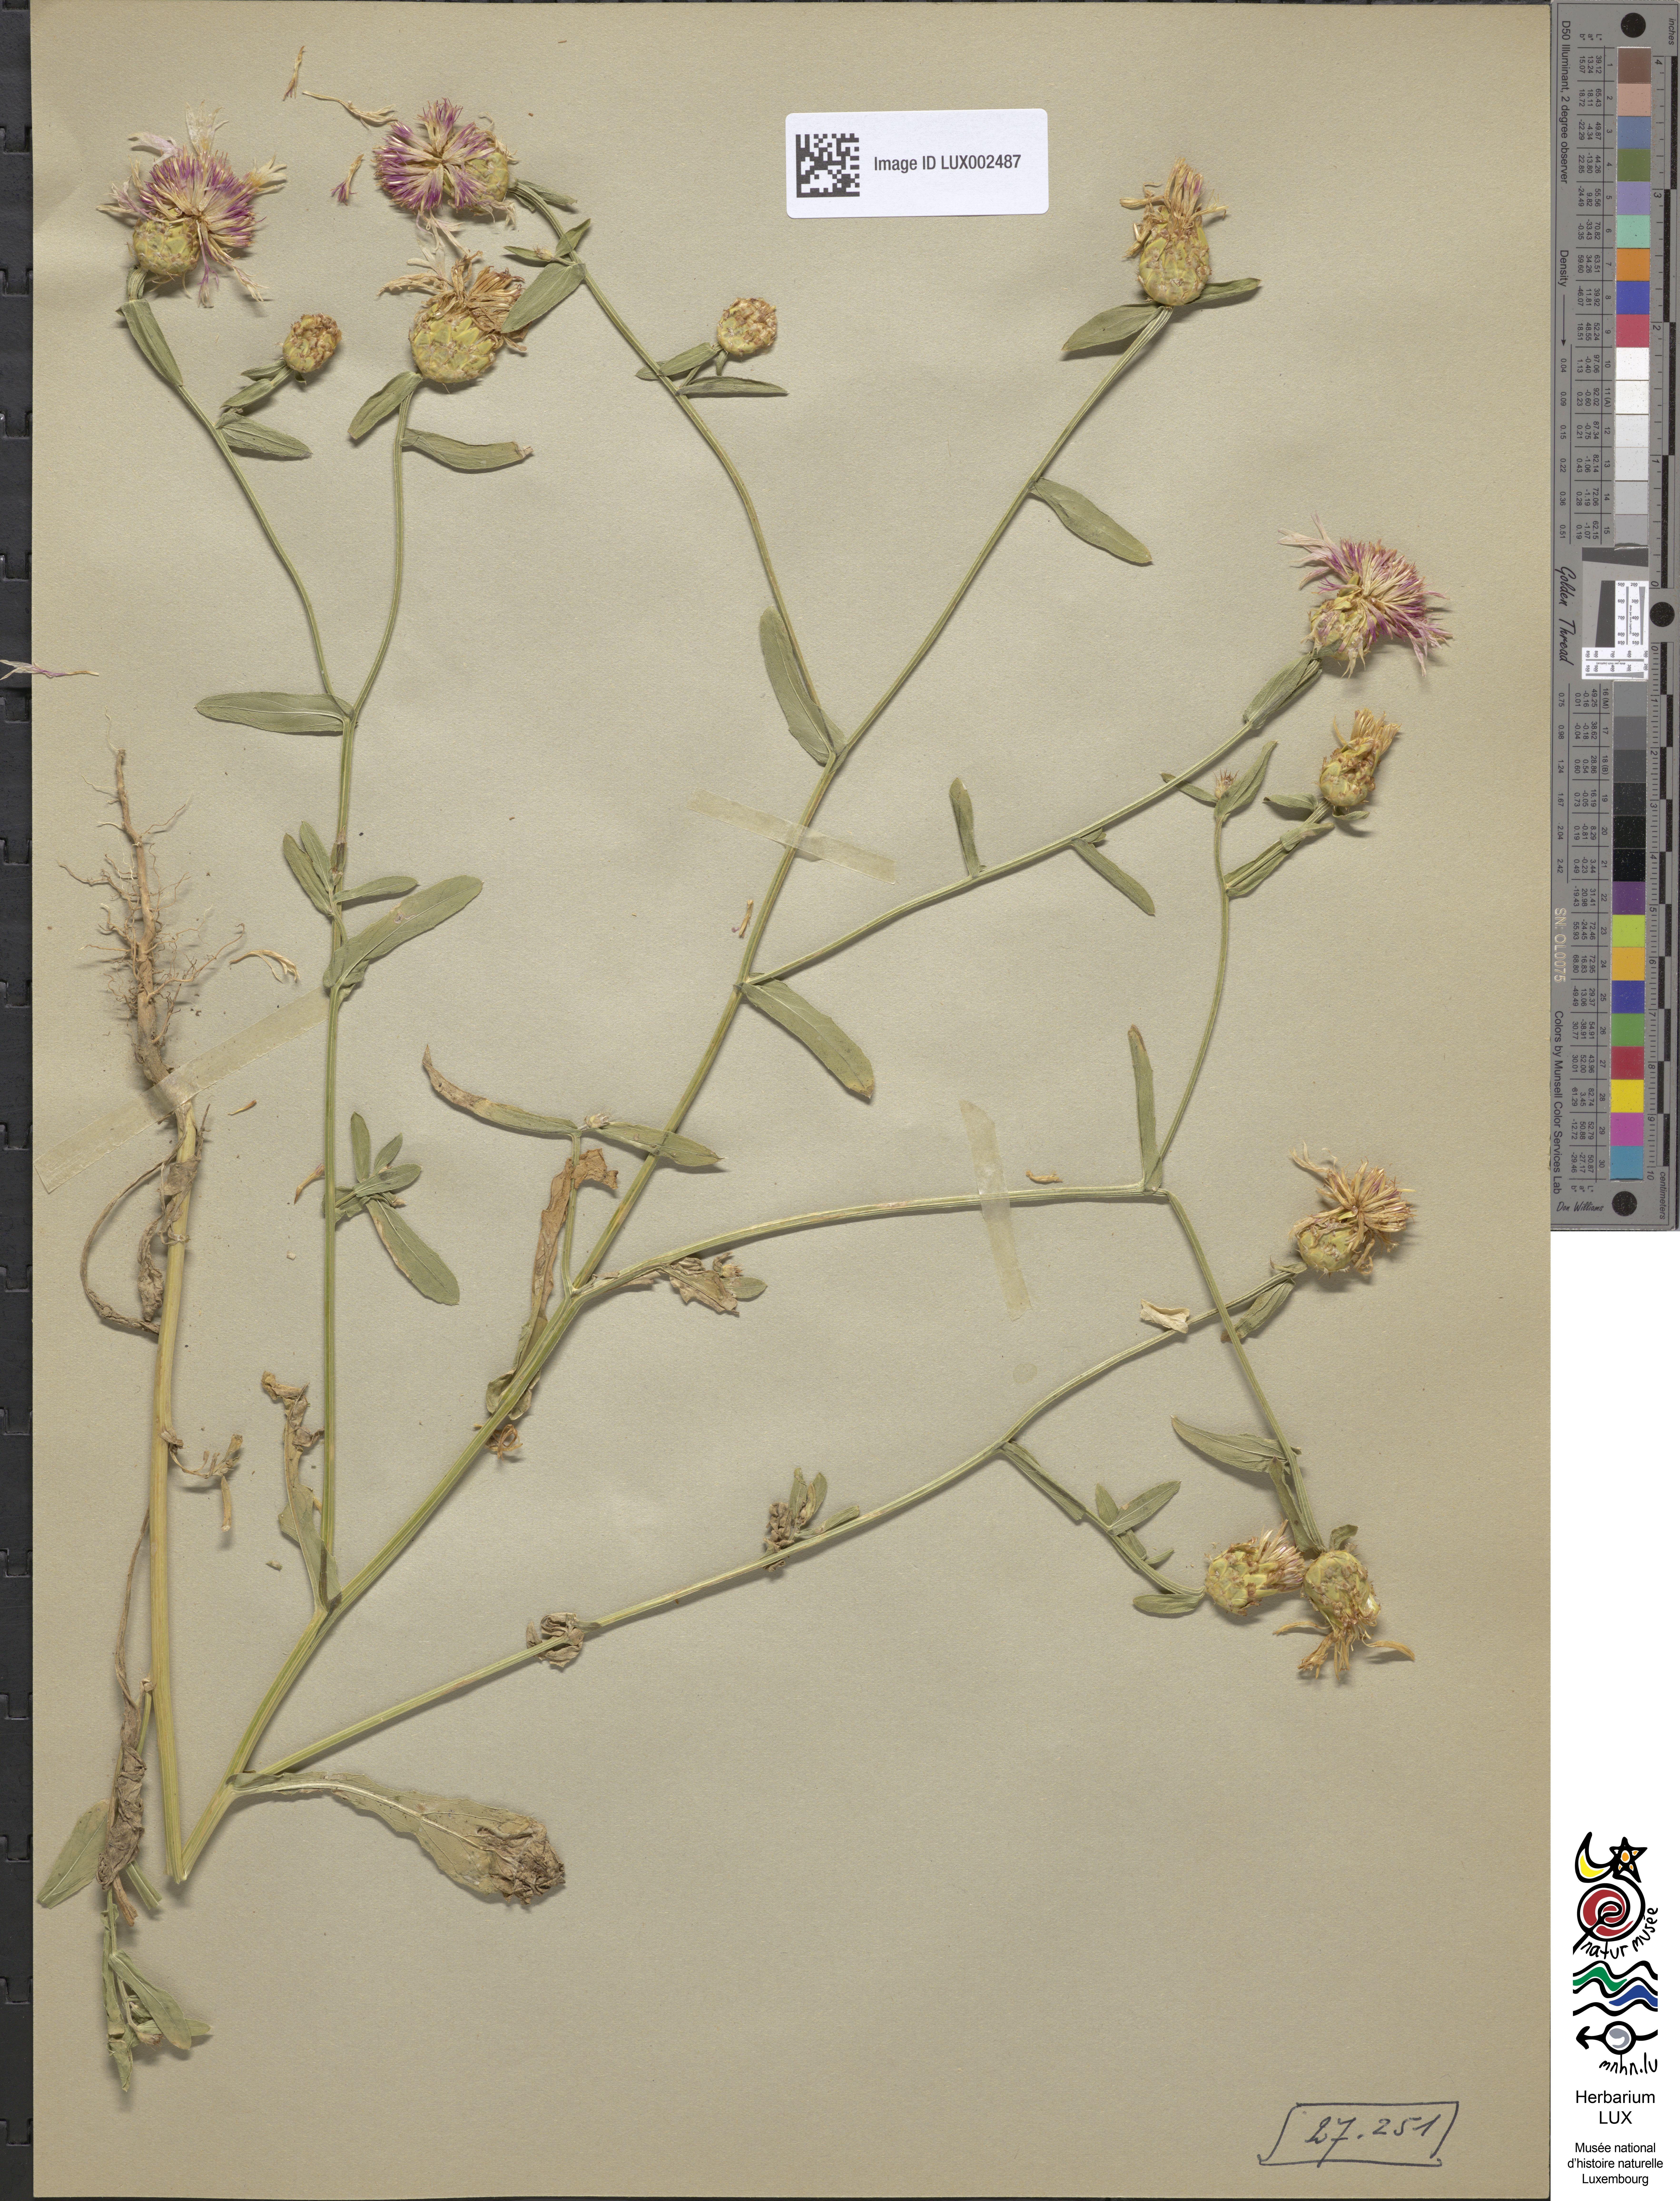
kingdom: Plantae
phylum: Tracheophyta
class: Magnoliopsida
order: Asterales
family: Asteraceae
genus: Centaurea
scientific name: Centaurea diluta
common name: Lesser star-thistle
